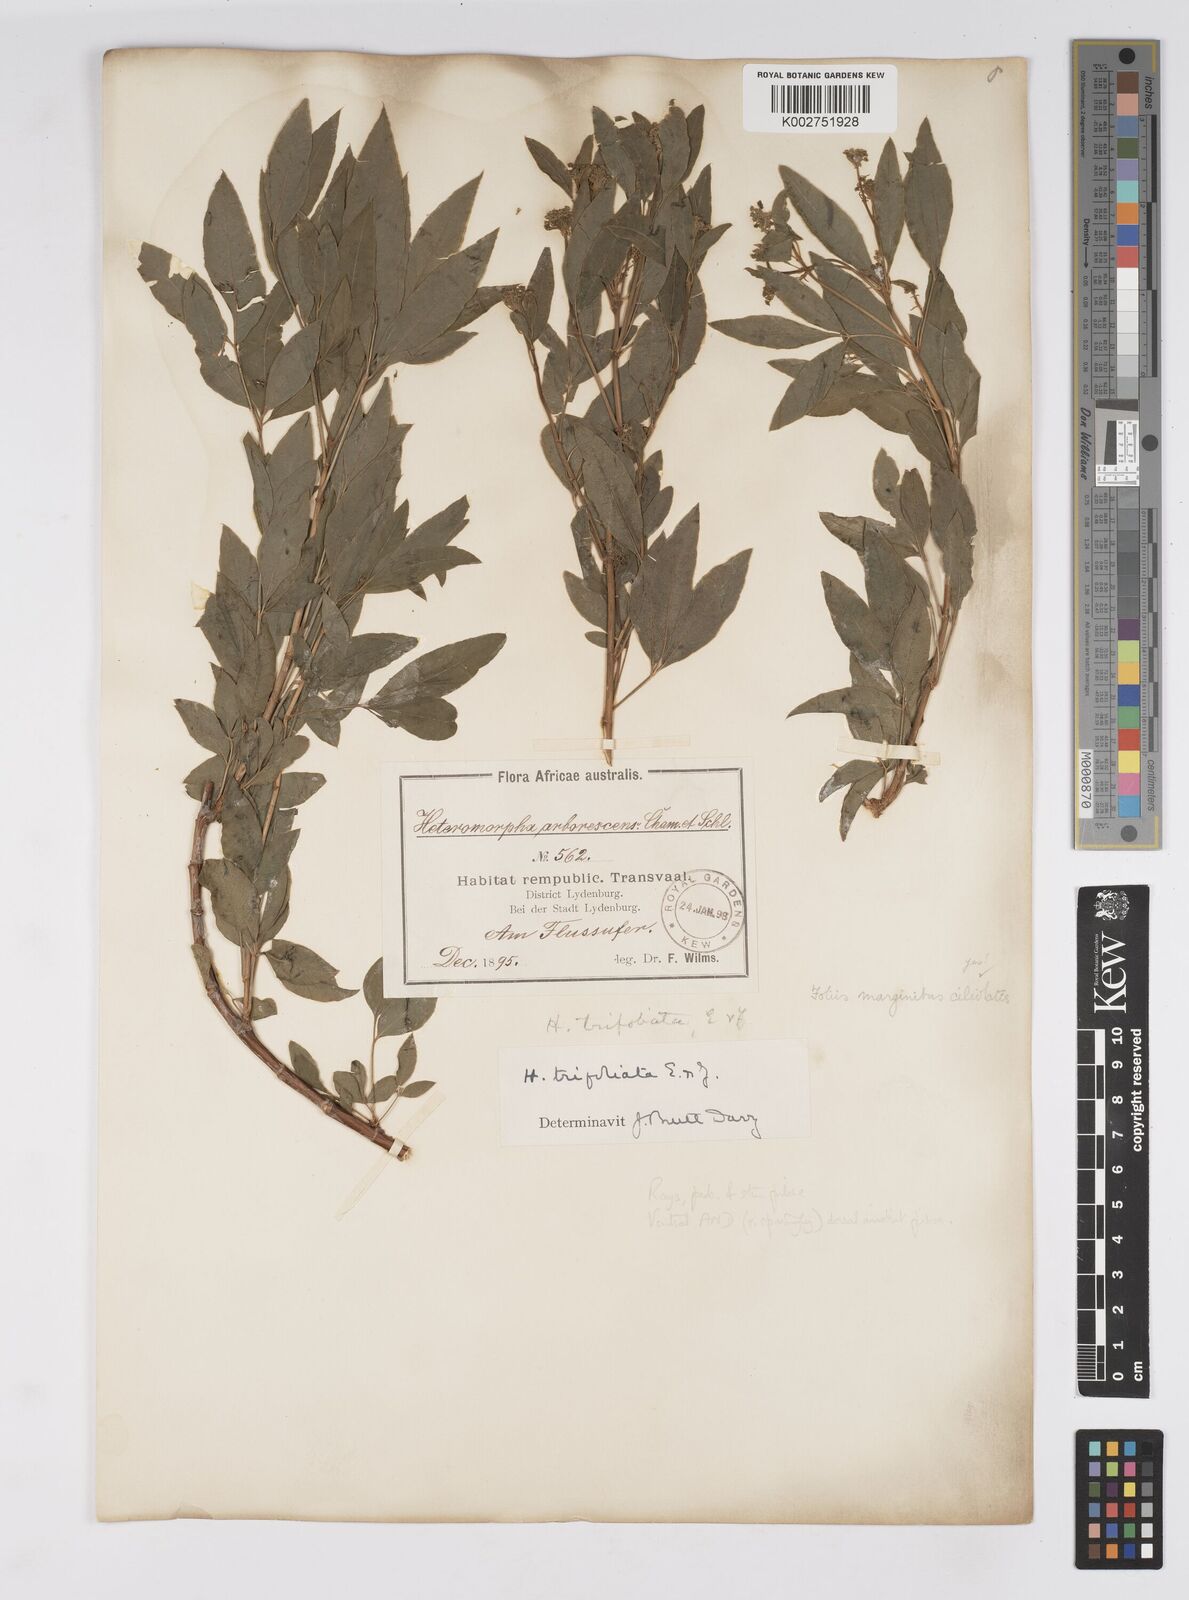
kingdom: Plantae
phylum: Tracheophyta
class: Magnoliopsida
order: Apiales
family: Apiaceae
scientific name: Apiaceae
